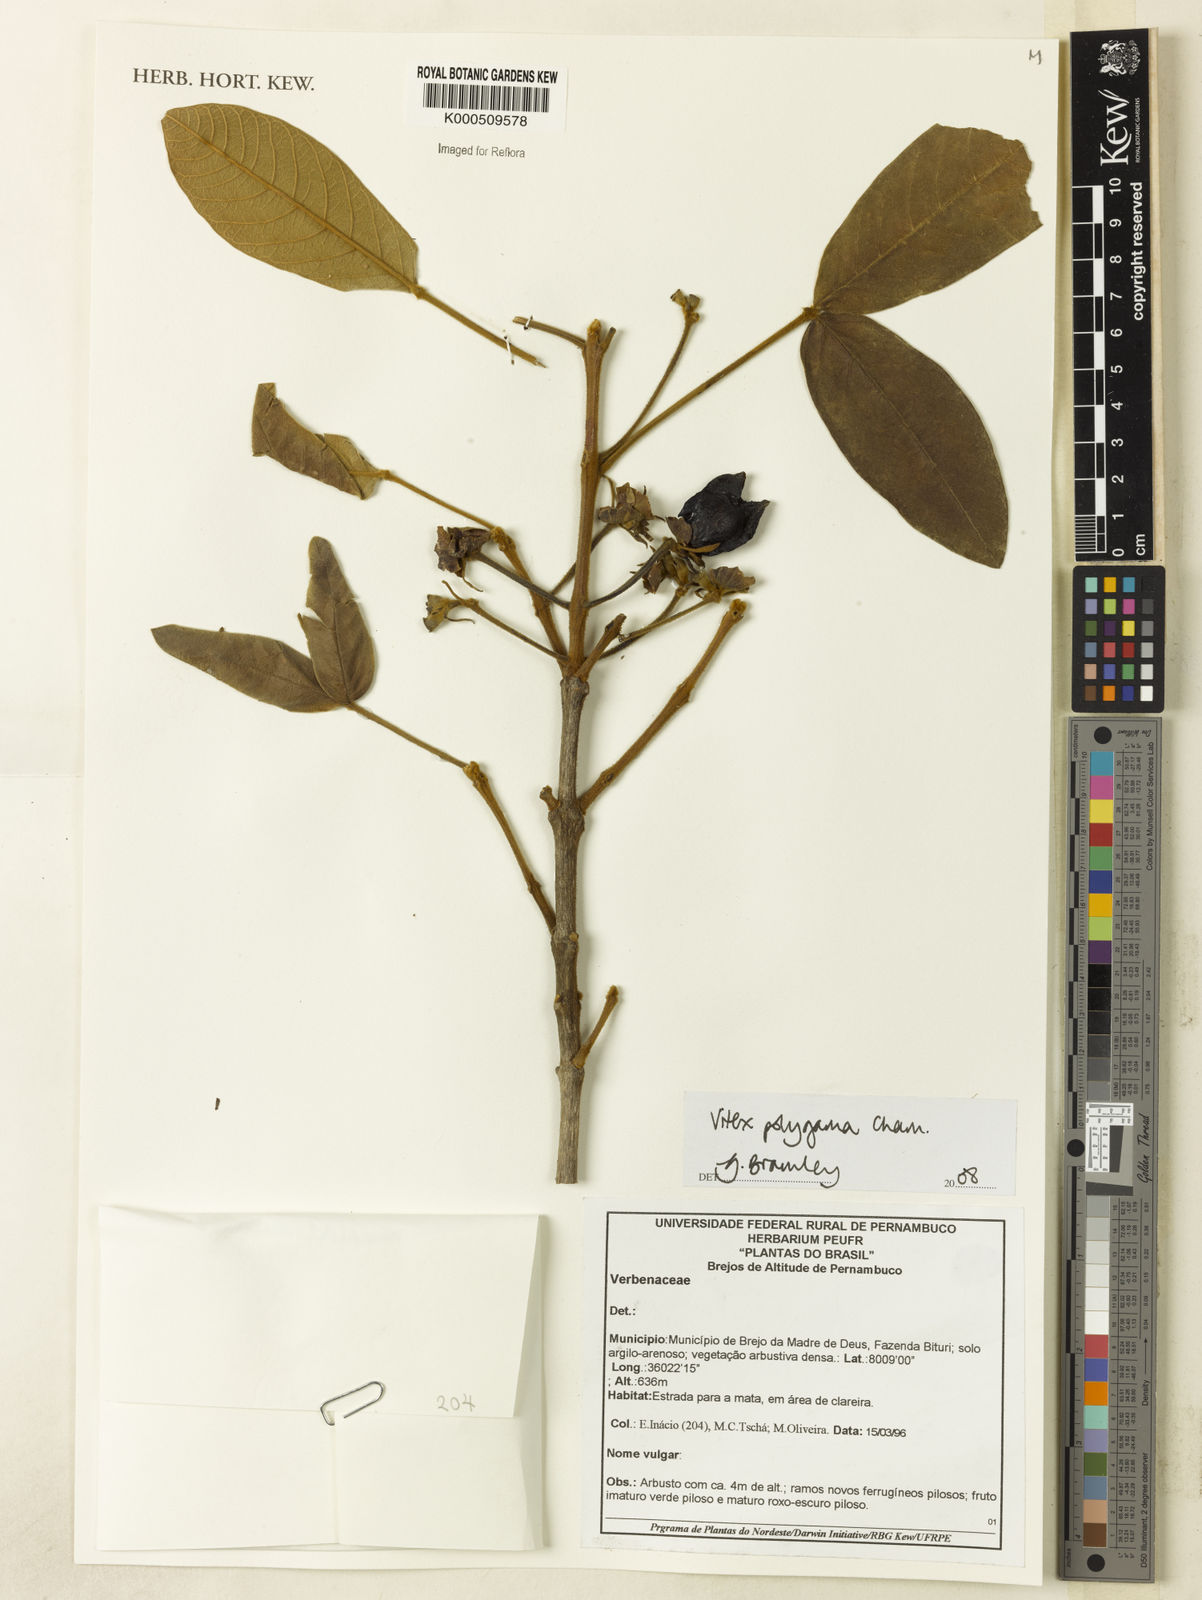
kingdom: Plantae
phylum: Tracheophyta
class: Magnoliopsida
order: Lamiales
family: Lamiaceae
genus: Vitex
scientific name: Vitex polygama
